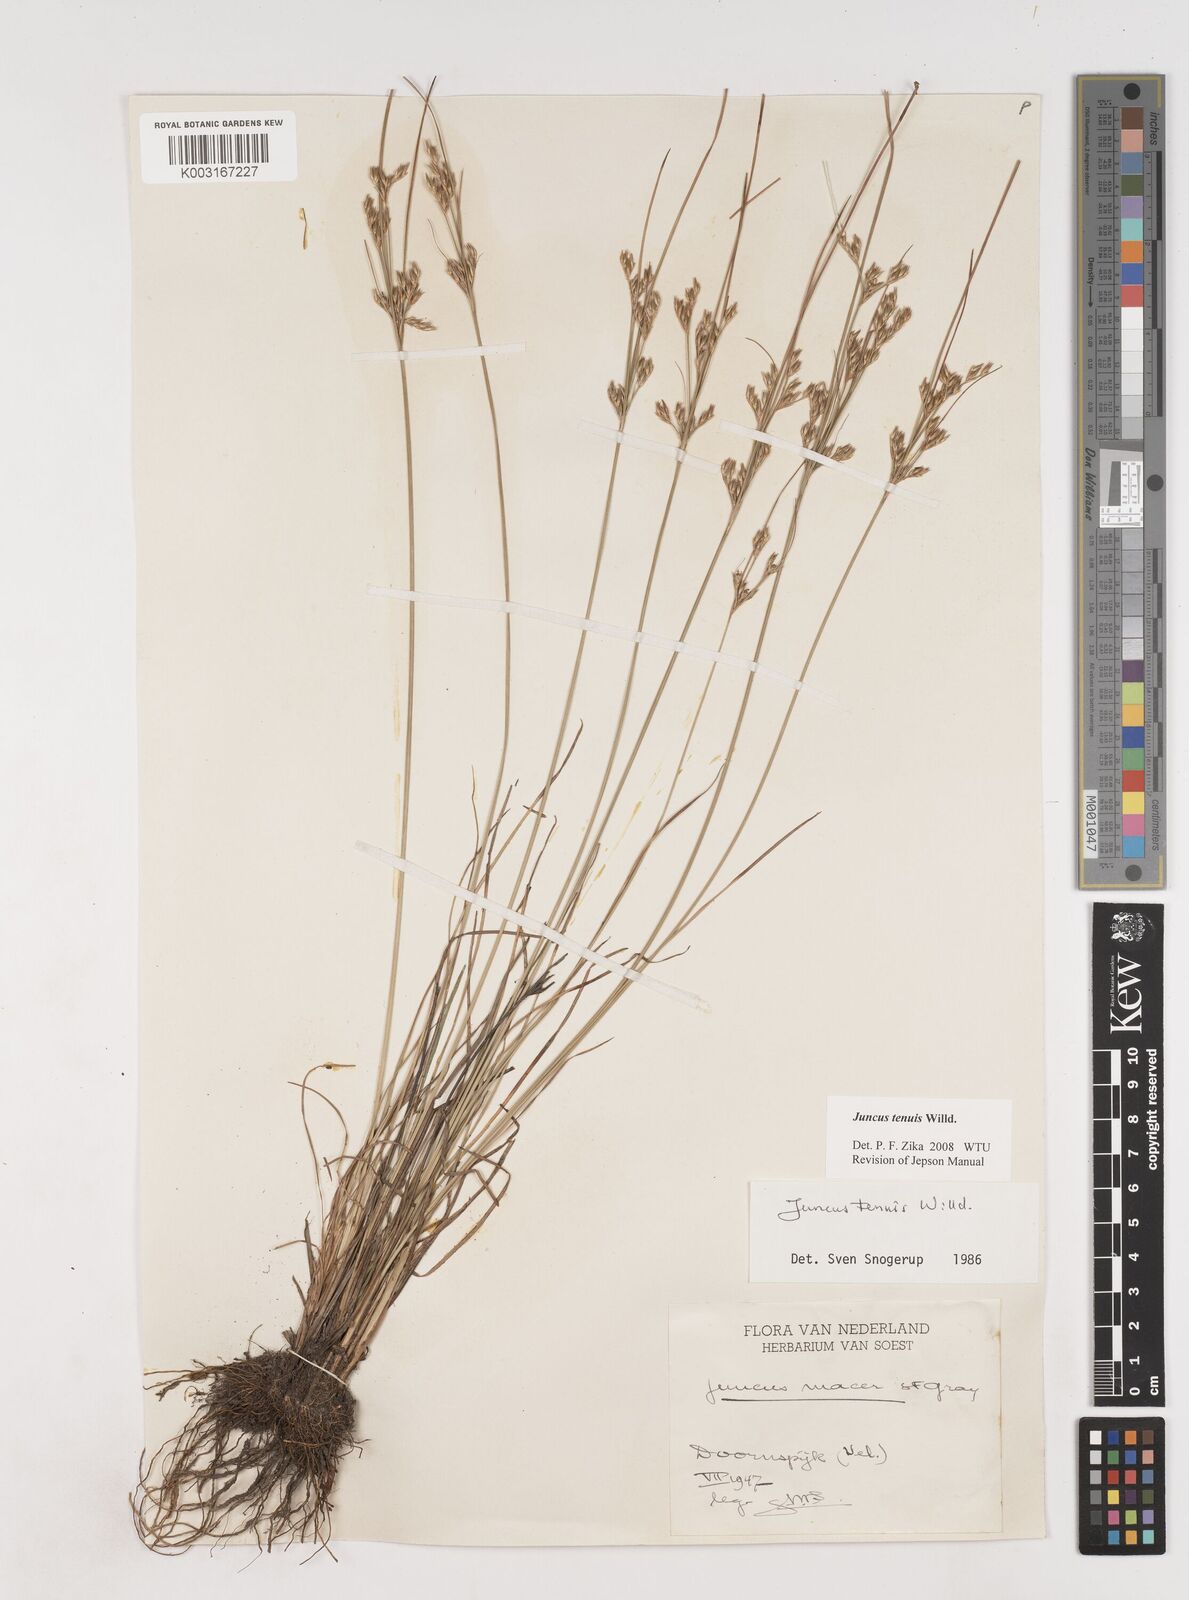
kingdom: Plantae
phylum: Tracheophyta
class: Liliopsida
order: Poales
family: Juncaceae
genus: Juncus
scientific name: Juncus tenuis
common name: Slender rush
